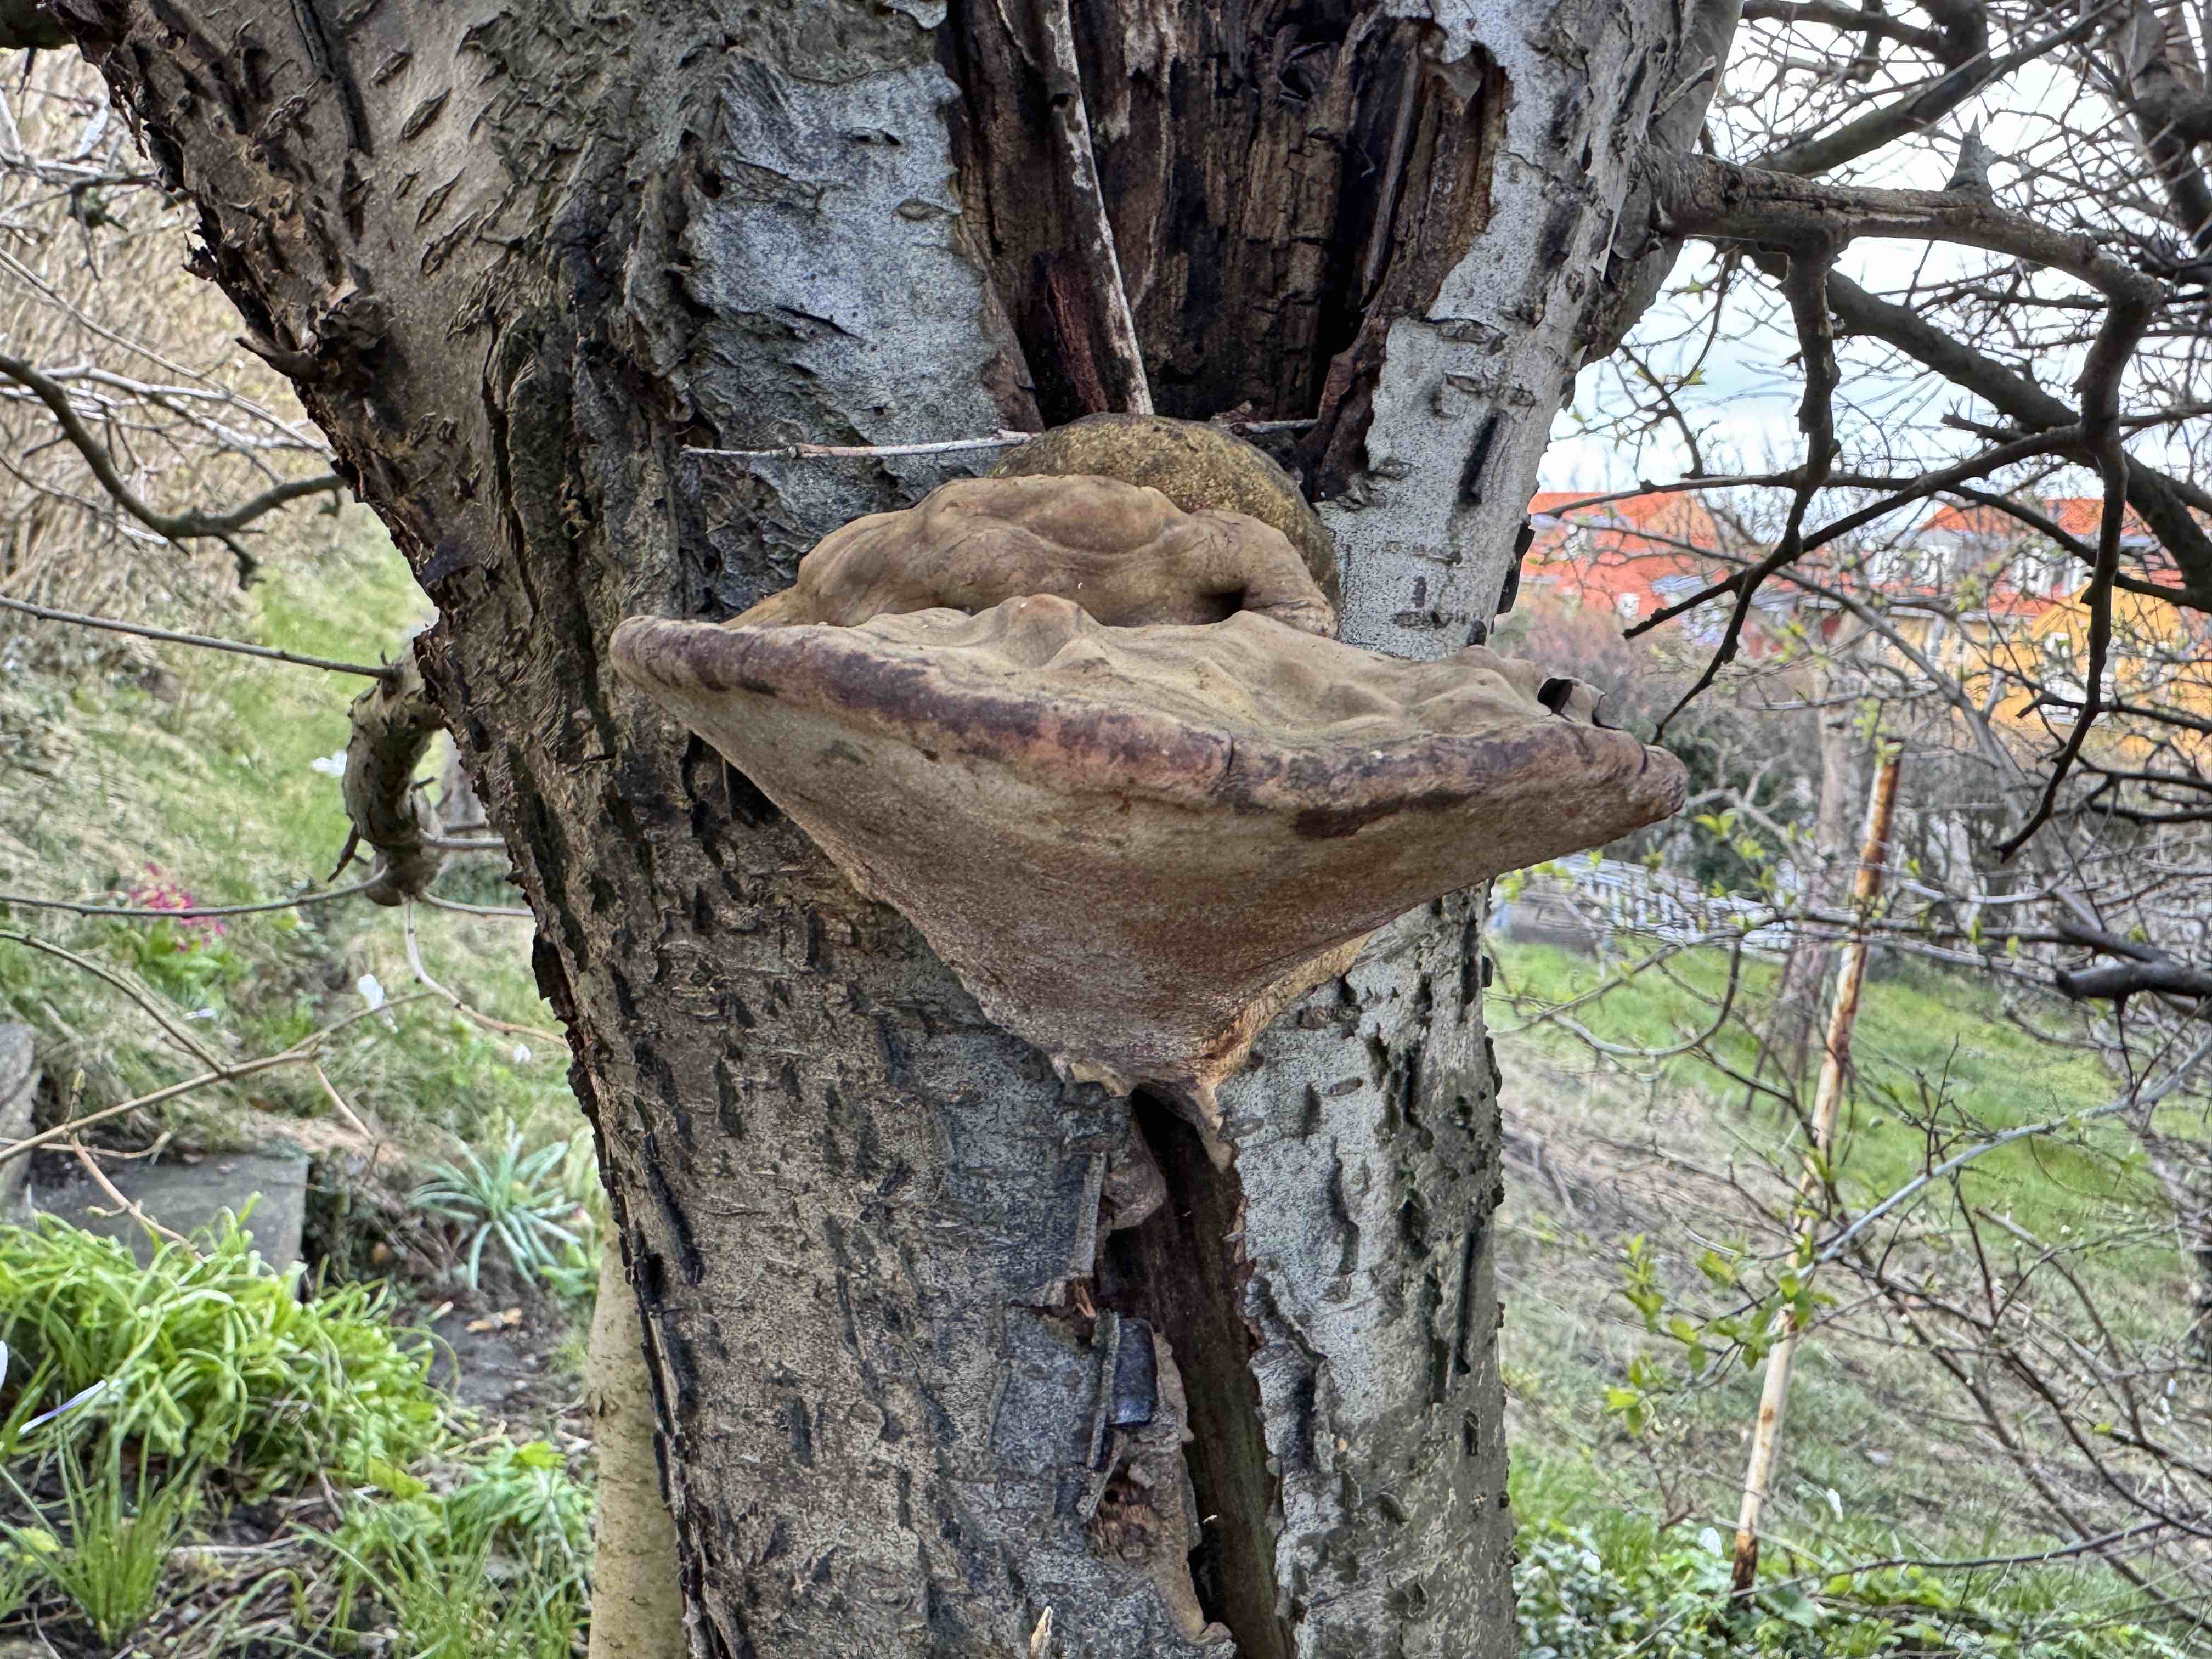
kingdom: Fungi
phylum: Basidiomycota
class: Agaricomycetes
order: Hymenochaetales
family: Hymenochaetaceae
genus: Phellinus
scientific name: Phellinus pomaceus
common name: blomme-ildporesvamp
